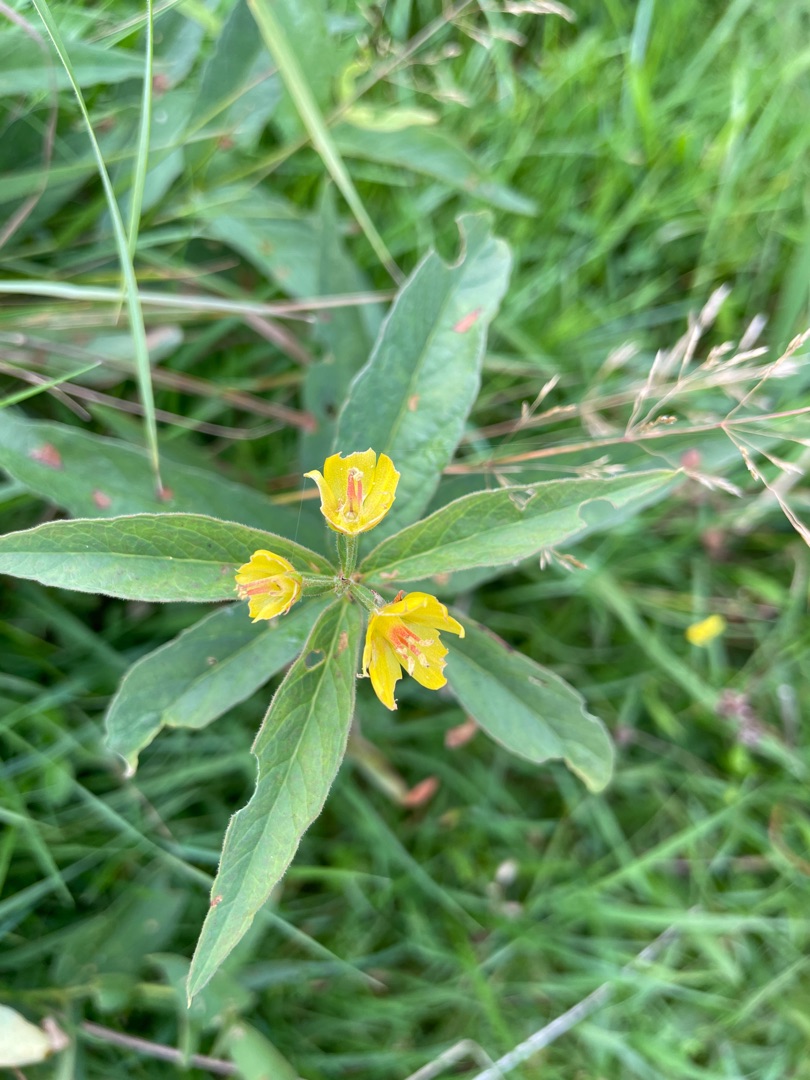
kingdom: Plantae
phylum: Tracheophyta
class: Magnoliopsida
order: Ericales
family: Primulaceae
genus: Lysimachia
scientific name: Lysimachia vulgaris
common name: Almindelig fredløs
